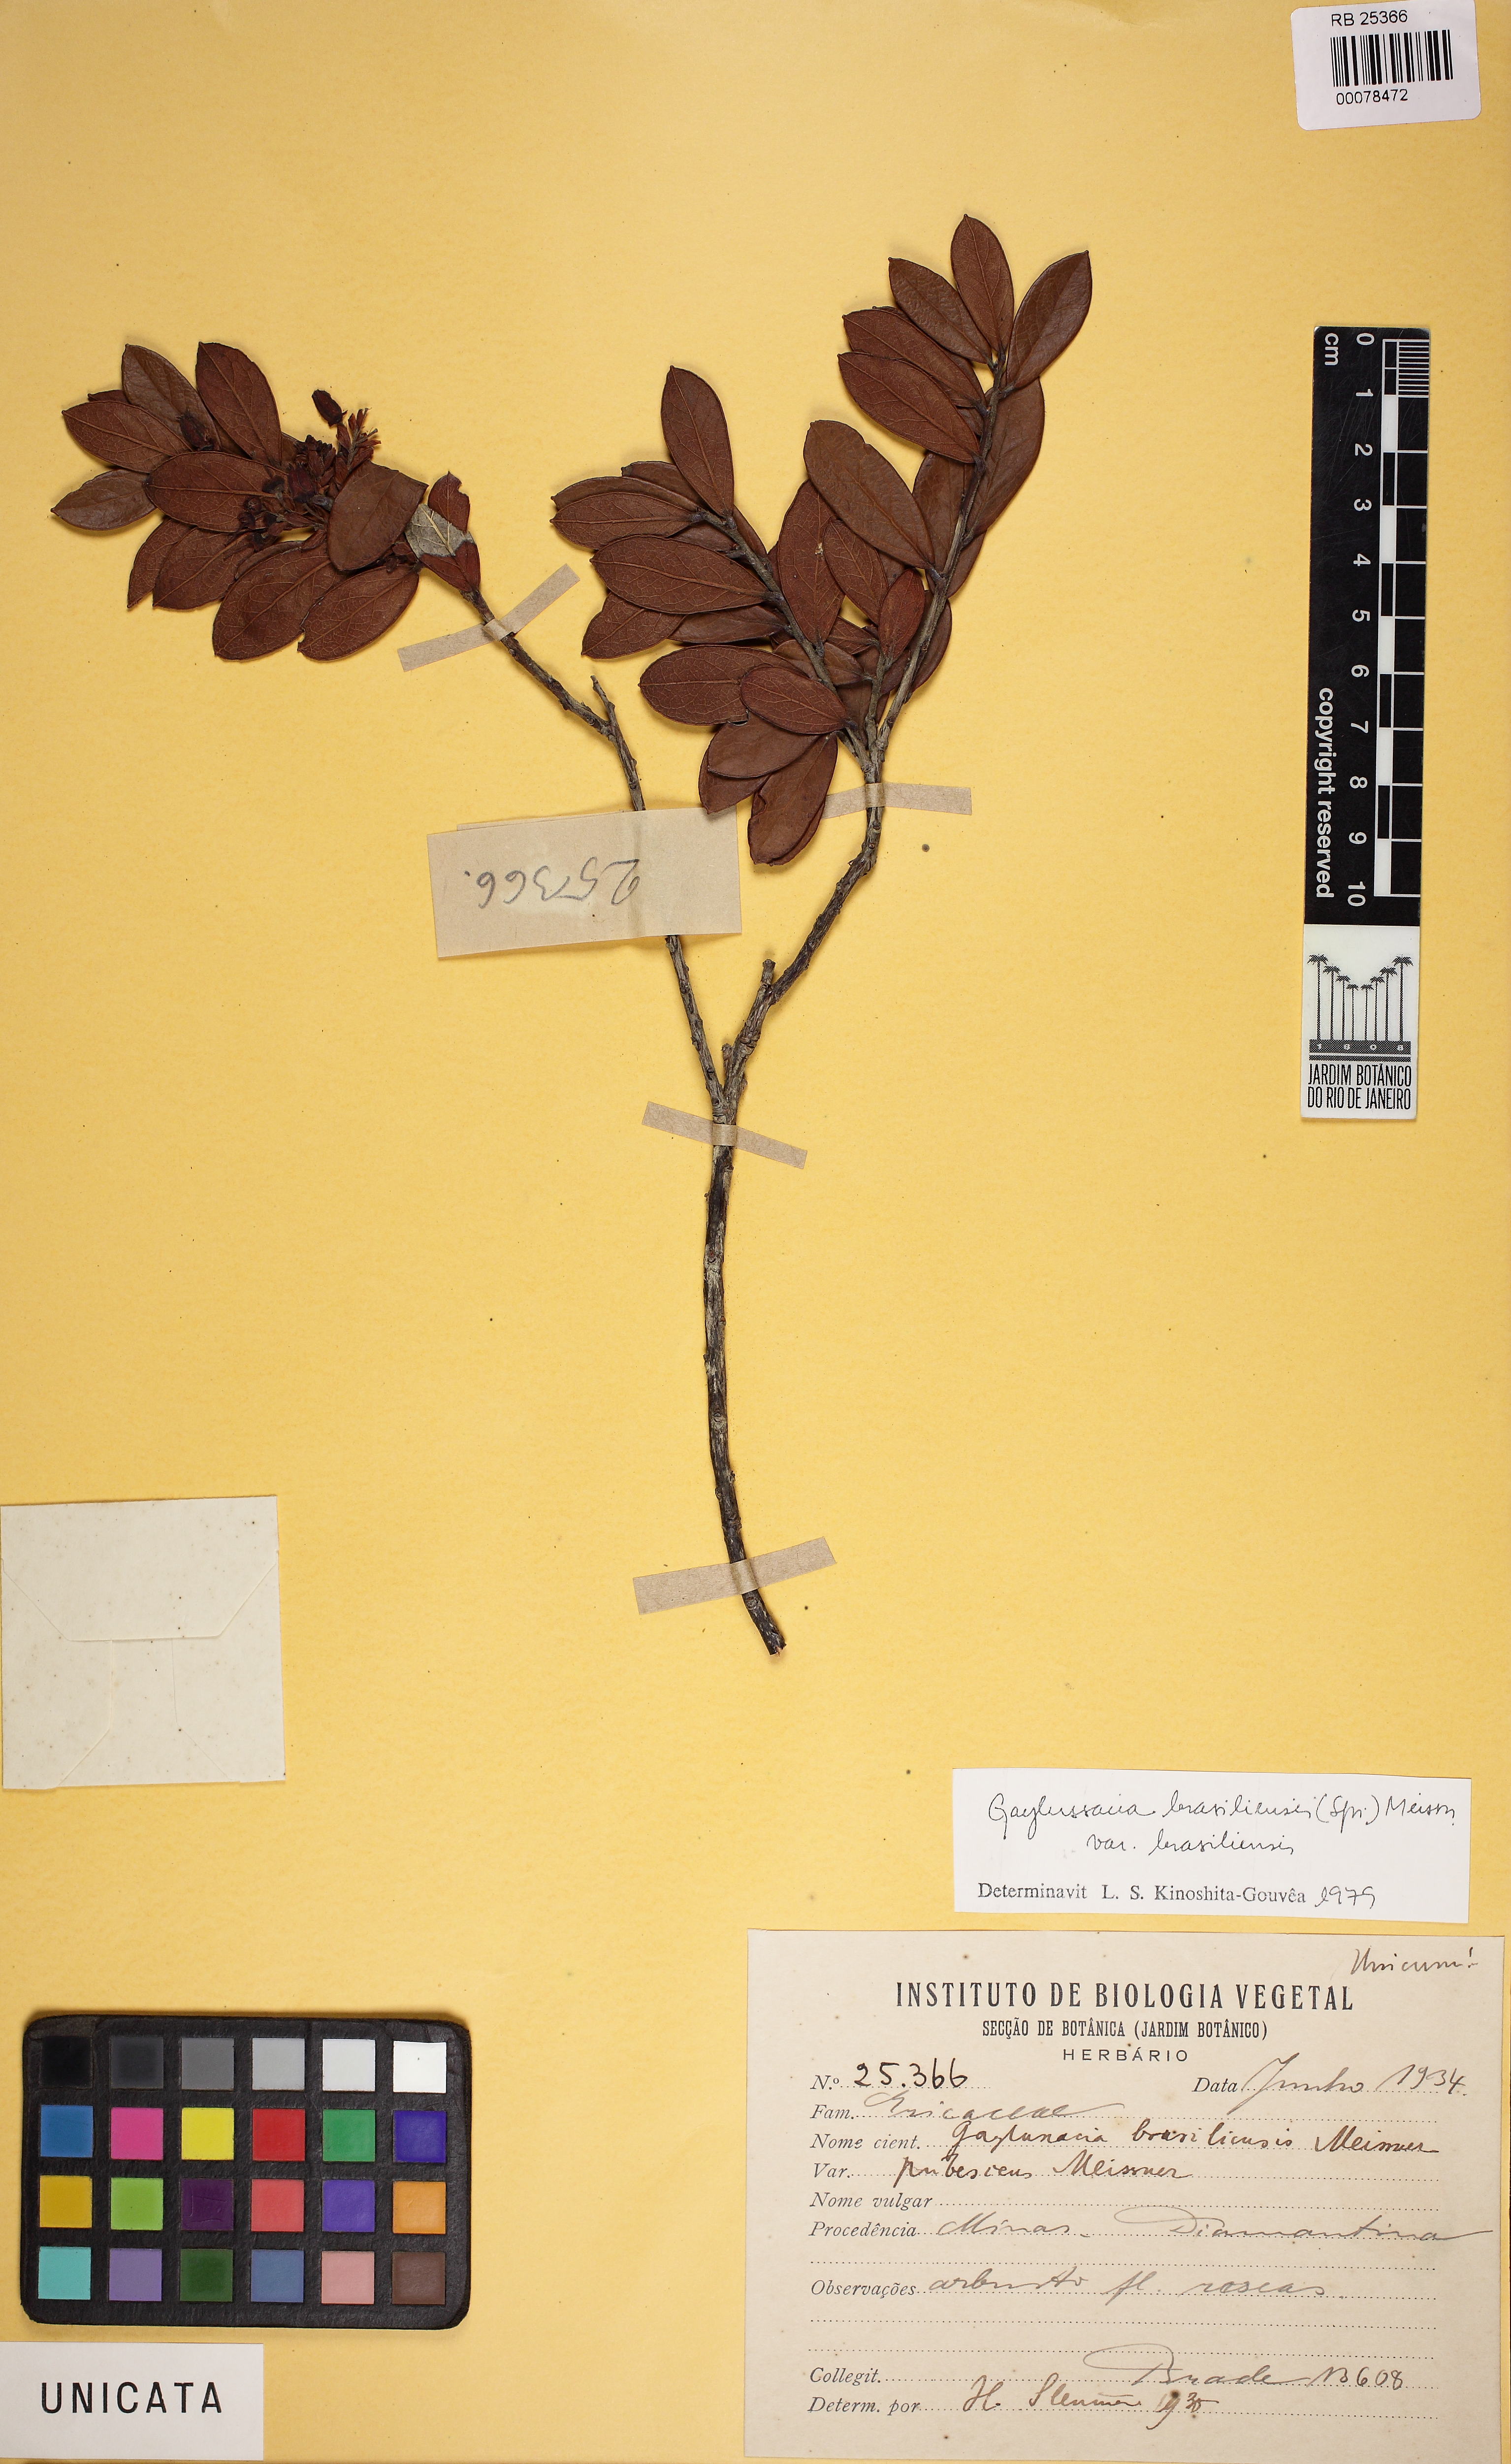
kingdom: Plantae
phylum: Tracheophyta
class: Magnoliopsida
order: Ericales
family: Ericaceae
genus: Gaylussacia
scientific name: Gaylussacia brasiliensis
